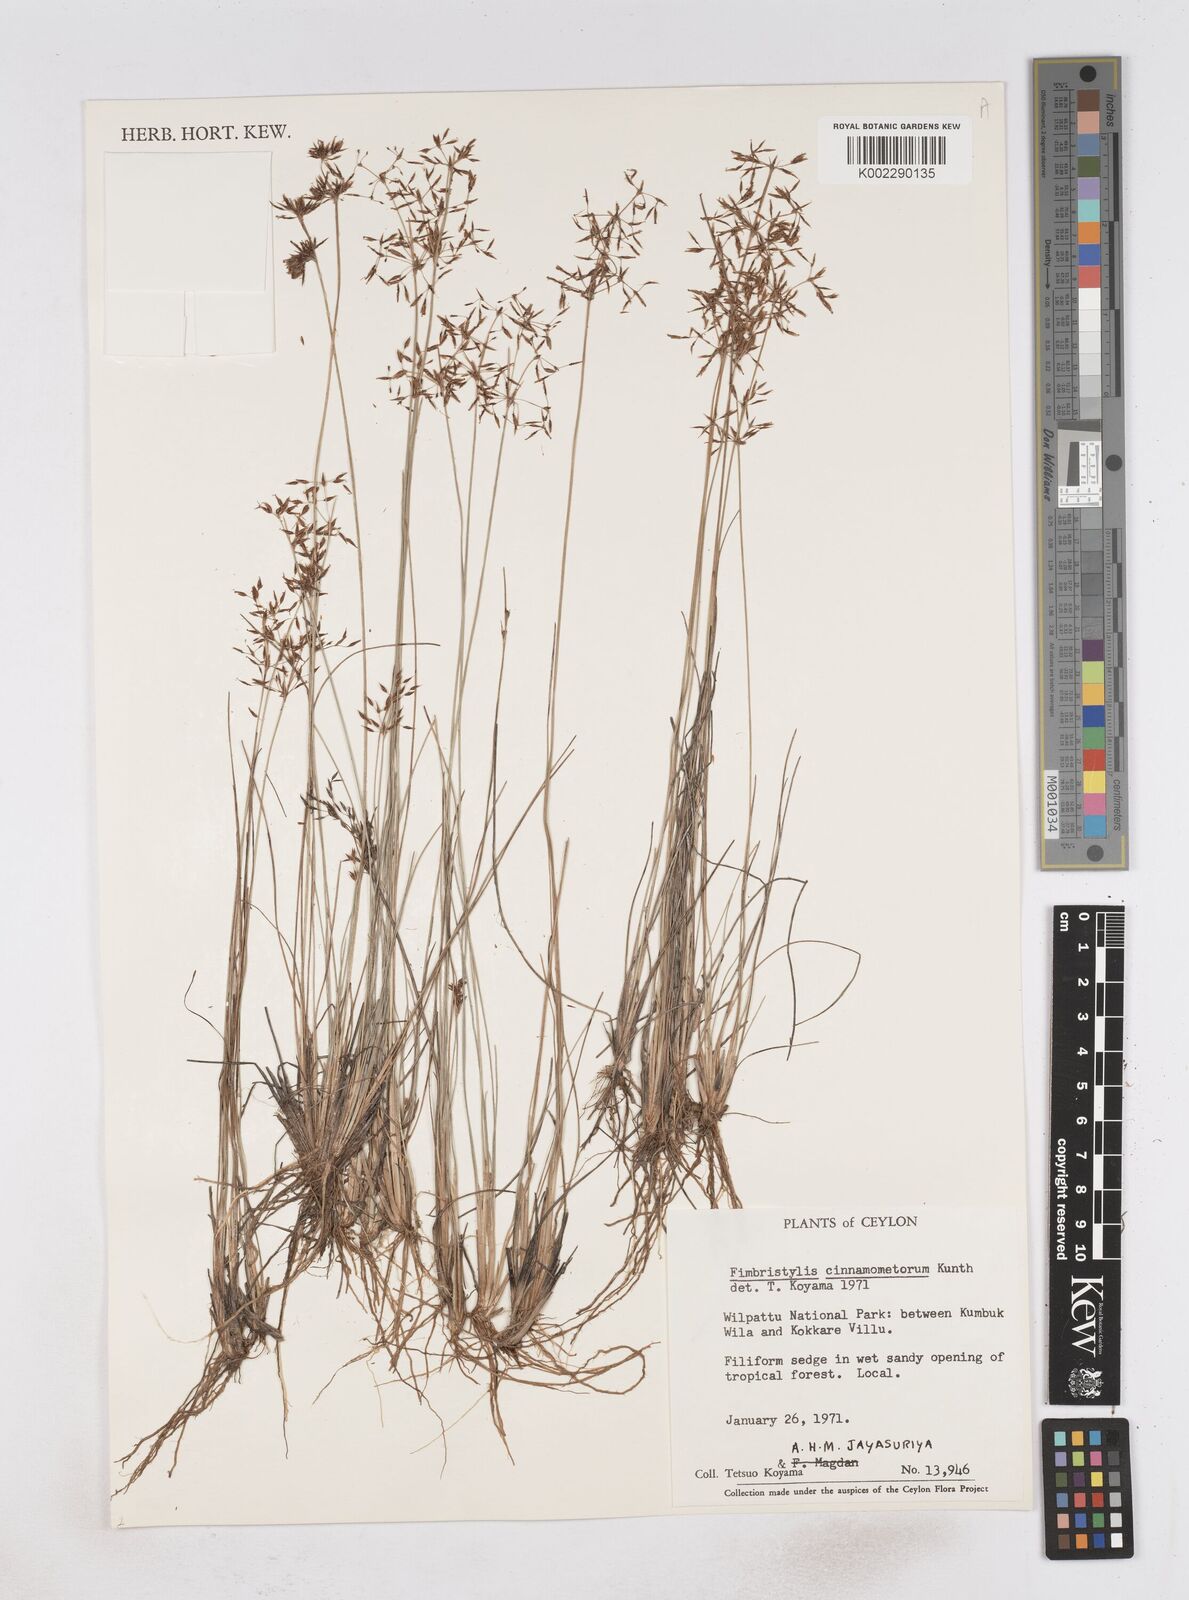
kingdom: Plantae
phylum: Tracheophyta
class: Liliopsida
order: Poales
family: Cyperaceae
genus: Fimbristylis
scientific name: Fimbristylis cinnamometorum
